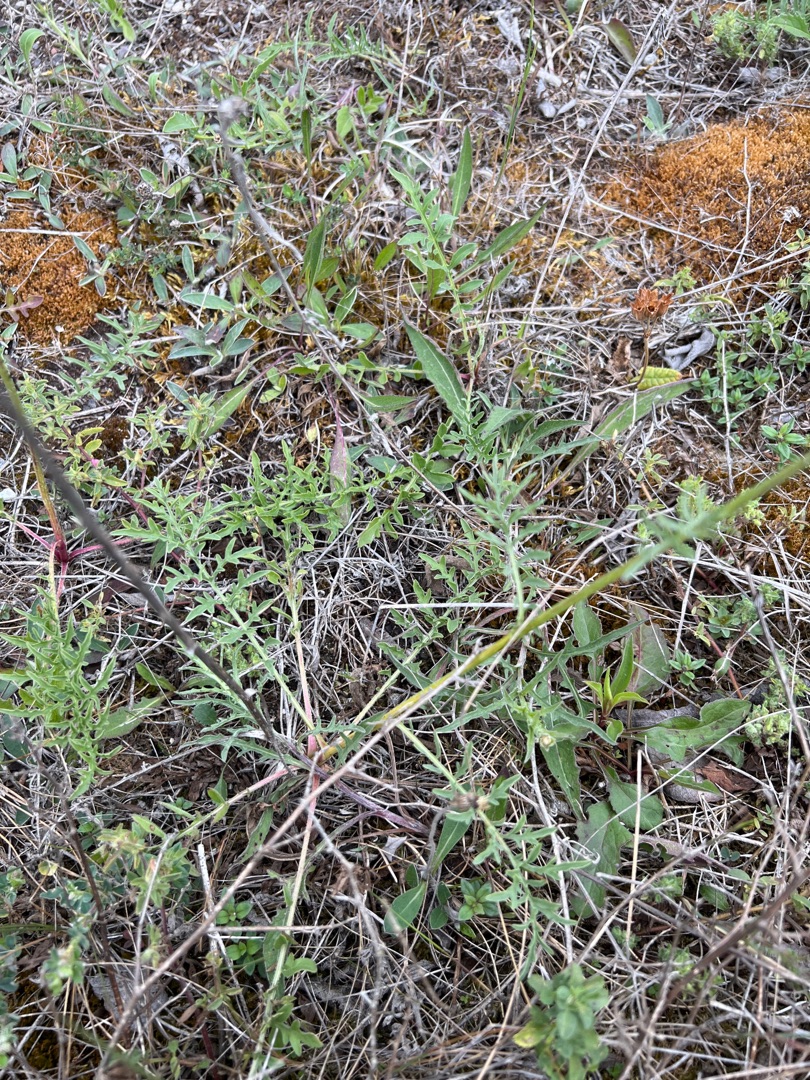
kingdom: Plantae
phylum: Tracheophyta
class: Magnoliopsida
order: Asterales
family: Asteraceae
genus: Centaurea
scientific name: Centaurea scabiosa
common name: Stor knopurt
